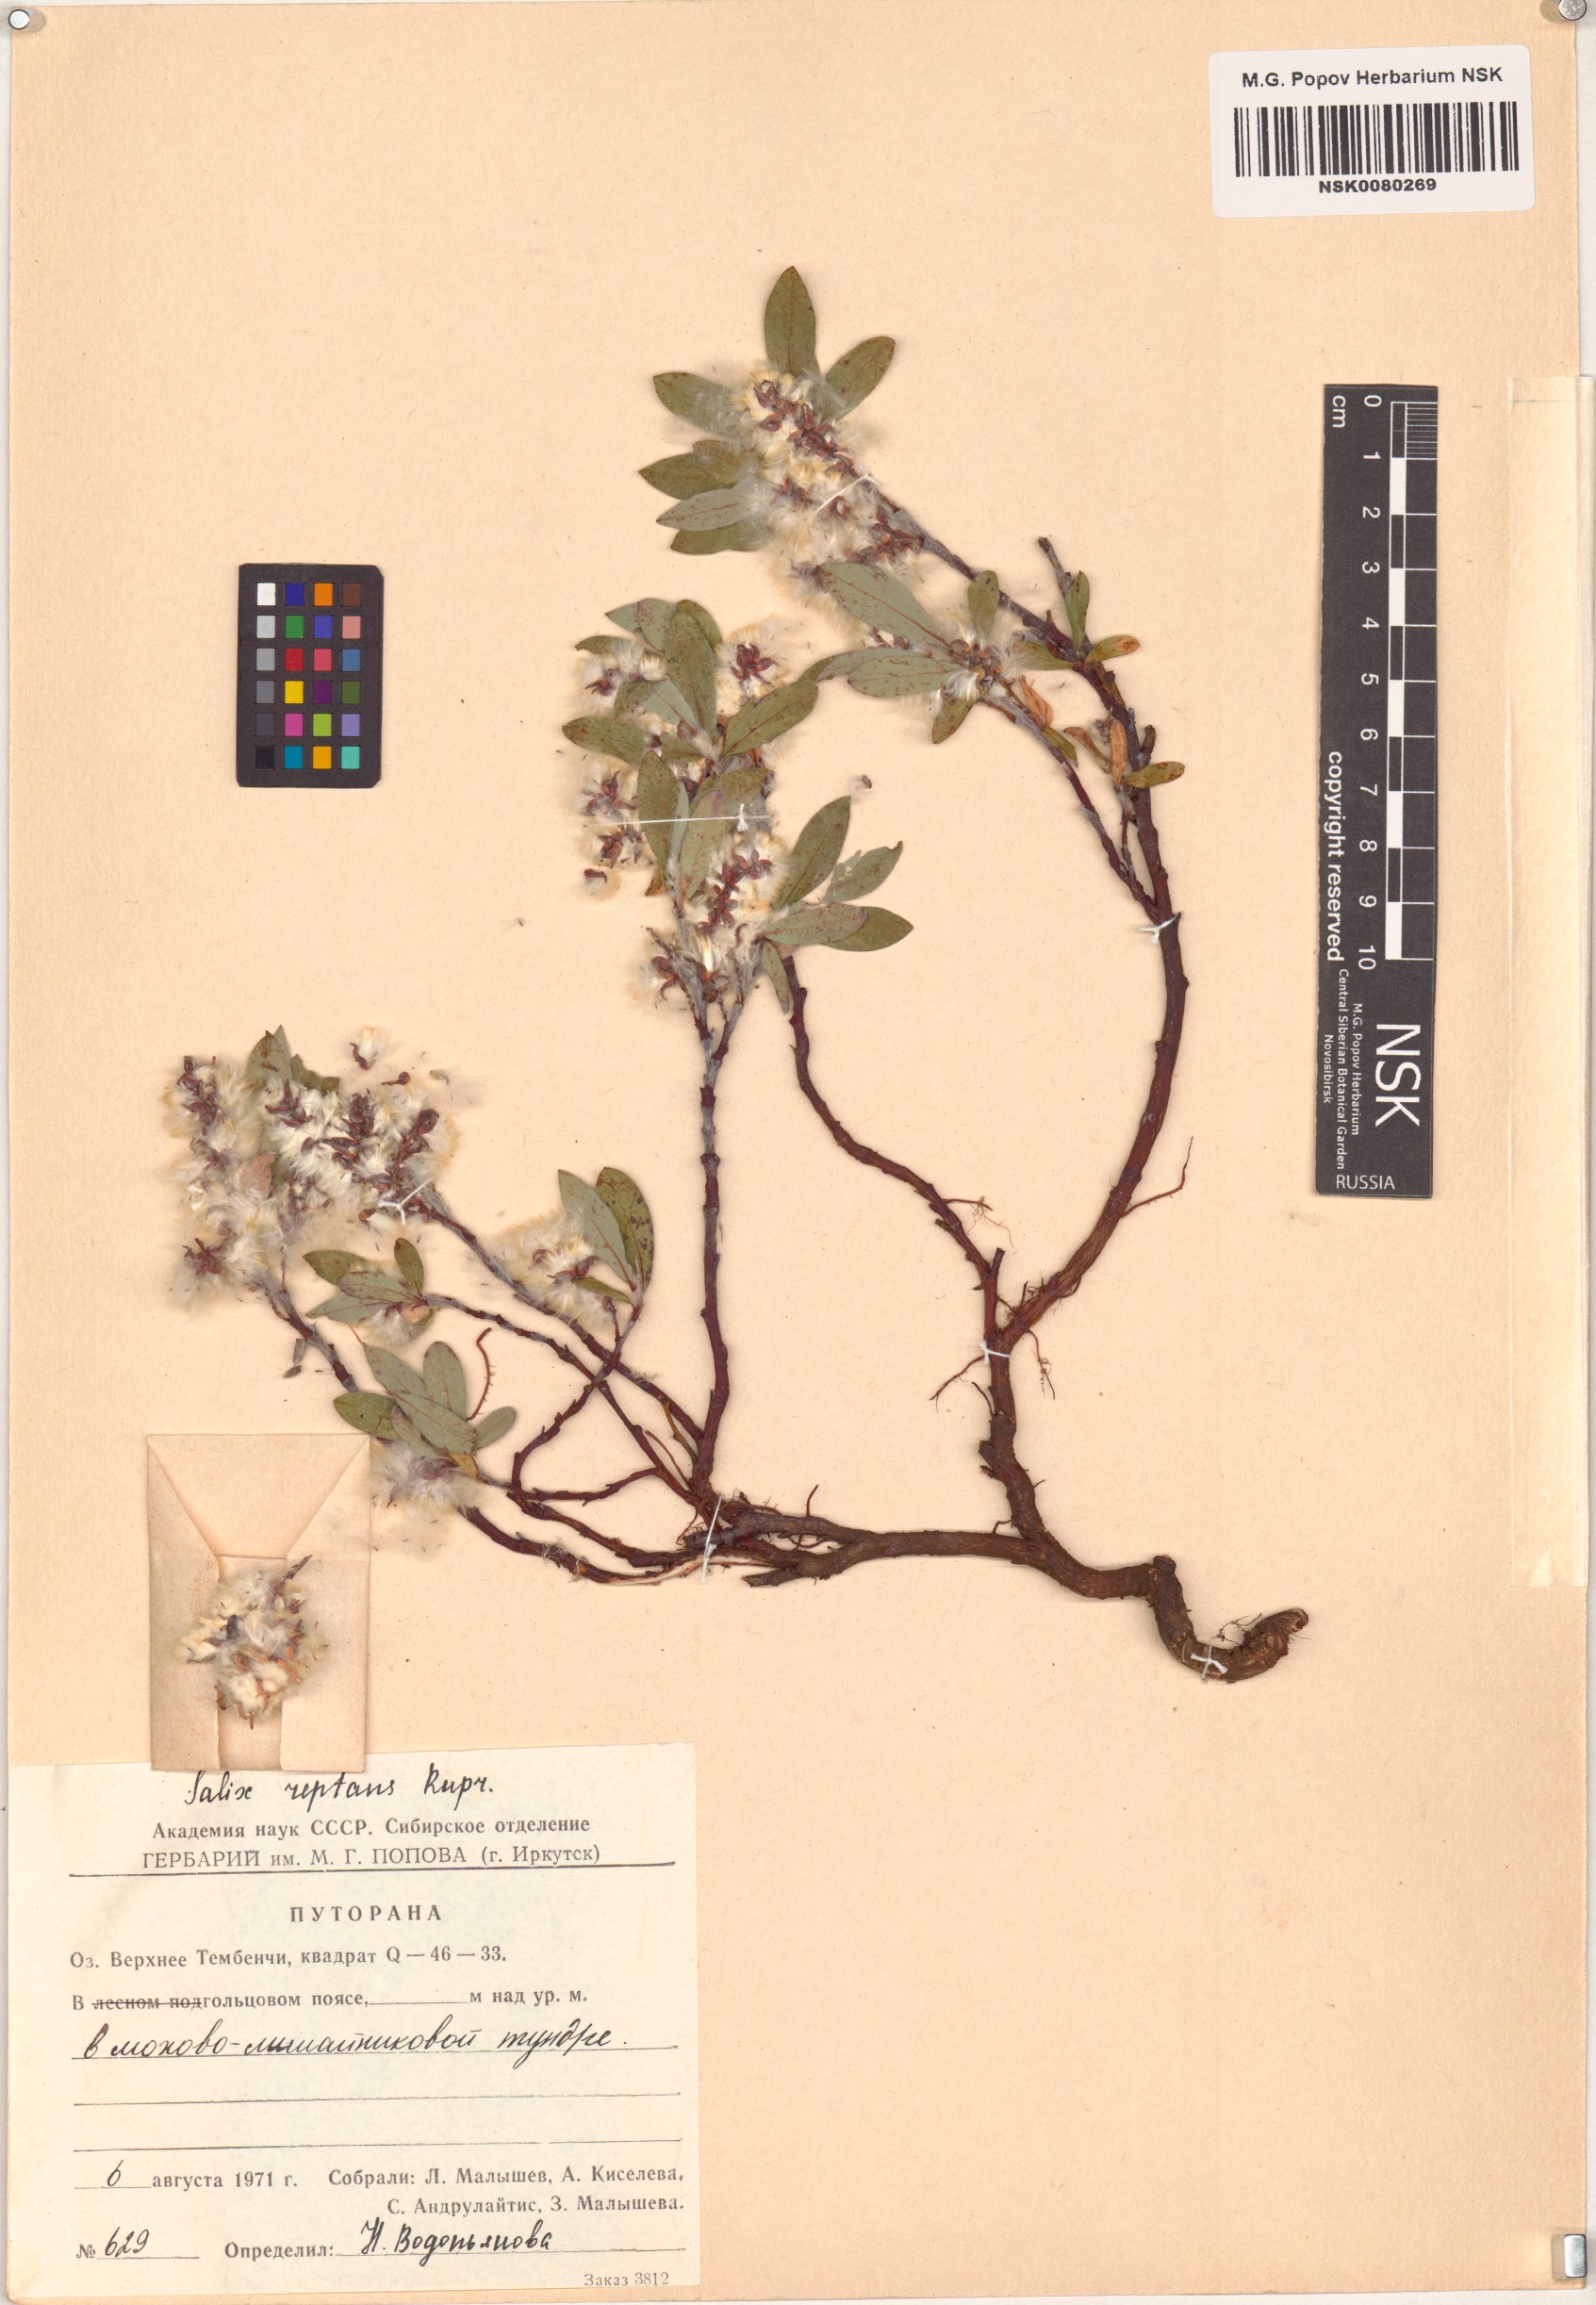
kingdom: Plantae
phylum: Tracheophyta
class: Magnoliopsida
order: Malpighiales
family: Salicaceae
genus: Salix
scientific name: Salix reptans
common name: Arctic creeping willow
